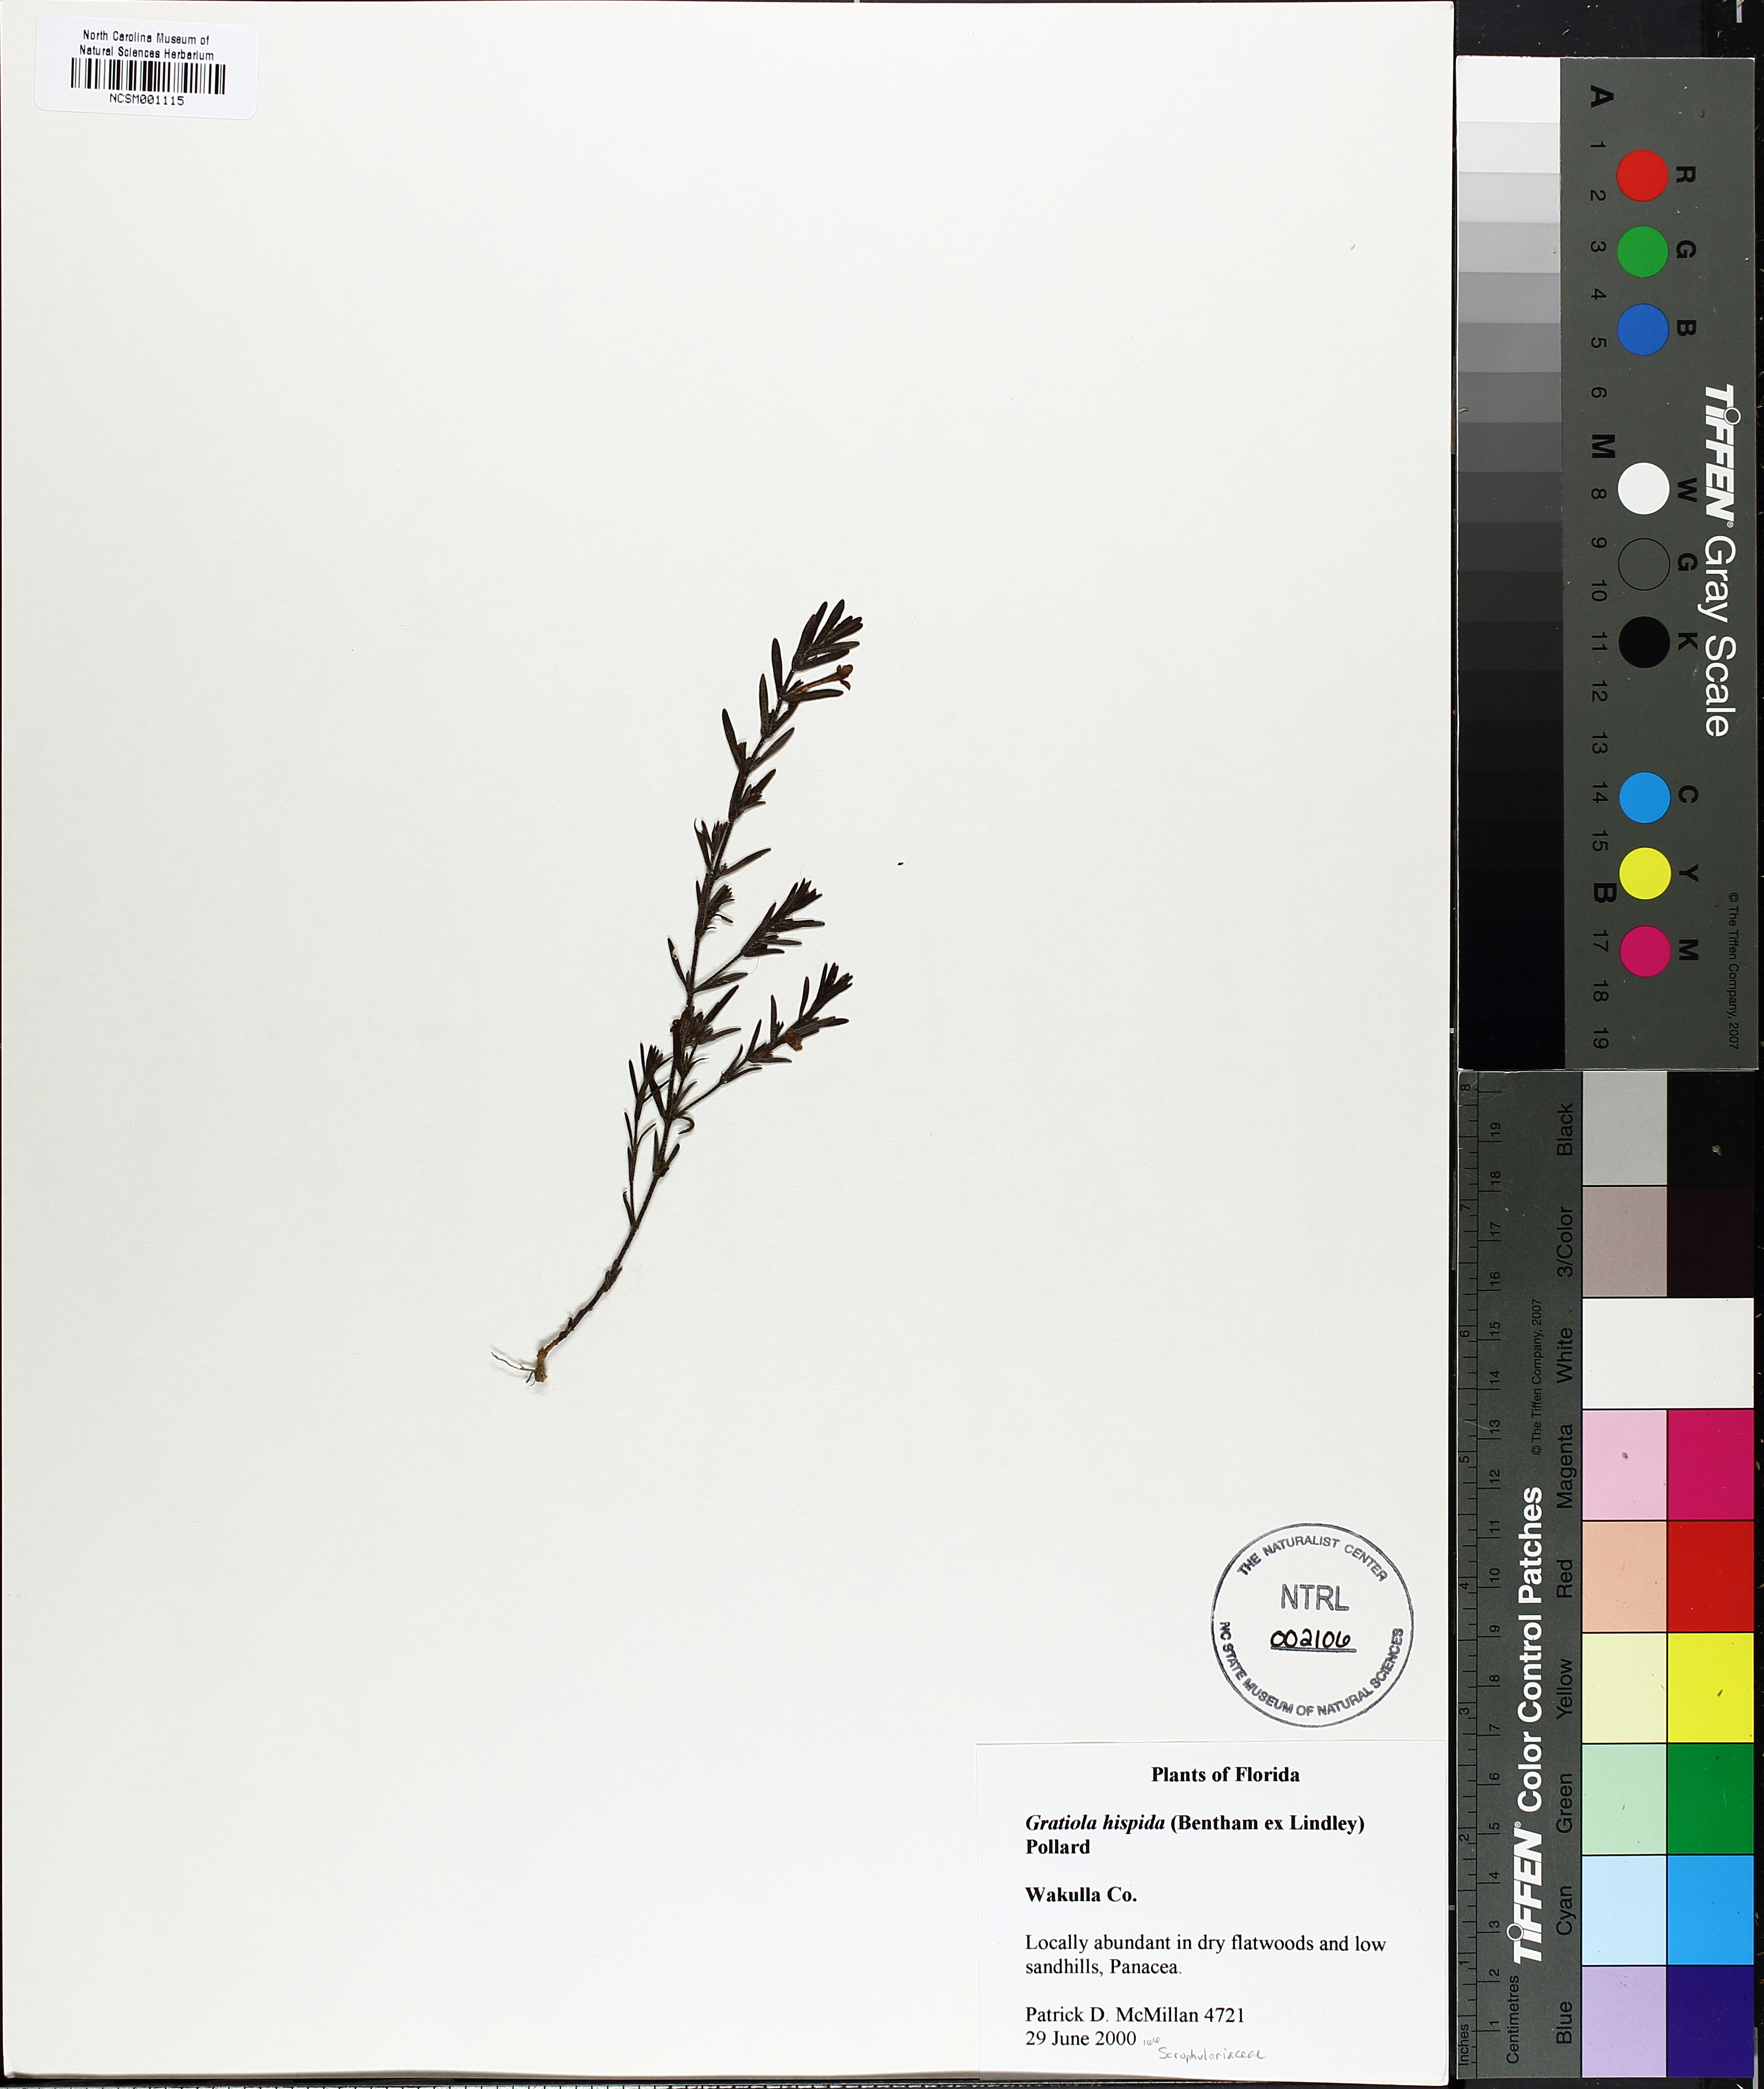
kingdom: Plantae
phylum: Tracheophyta
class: Magnoliopsida
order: Lamiales
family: Plantaginaceae
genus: Gratiola
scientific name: Gratiola hispida
